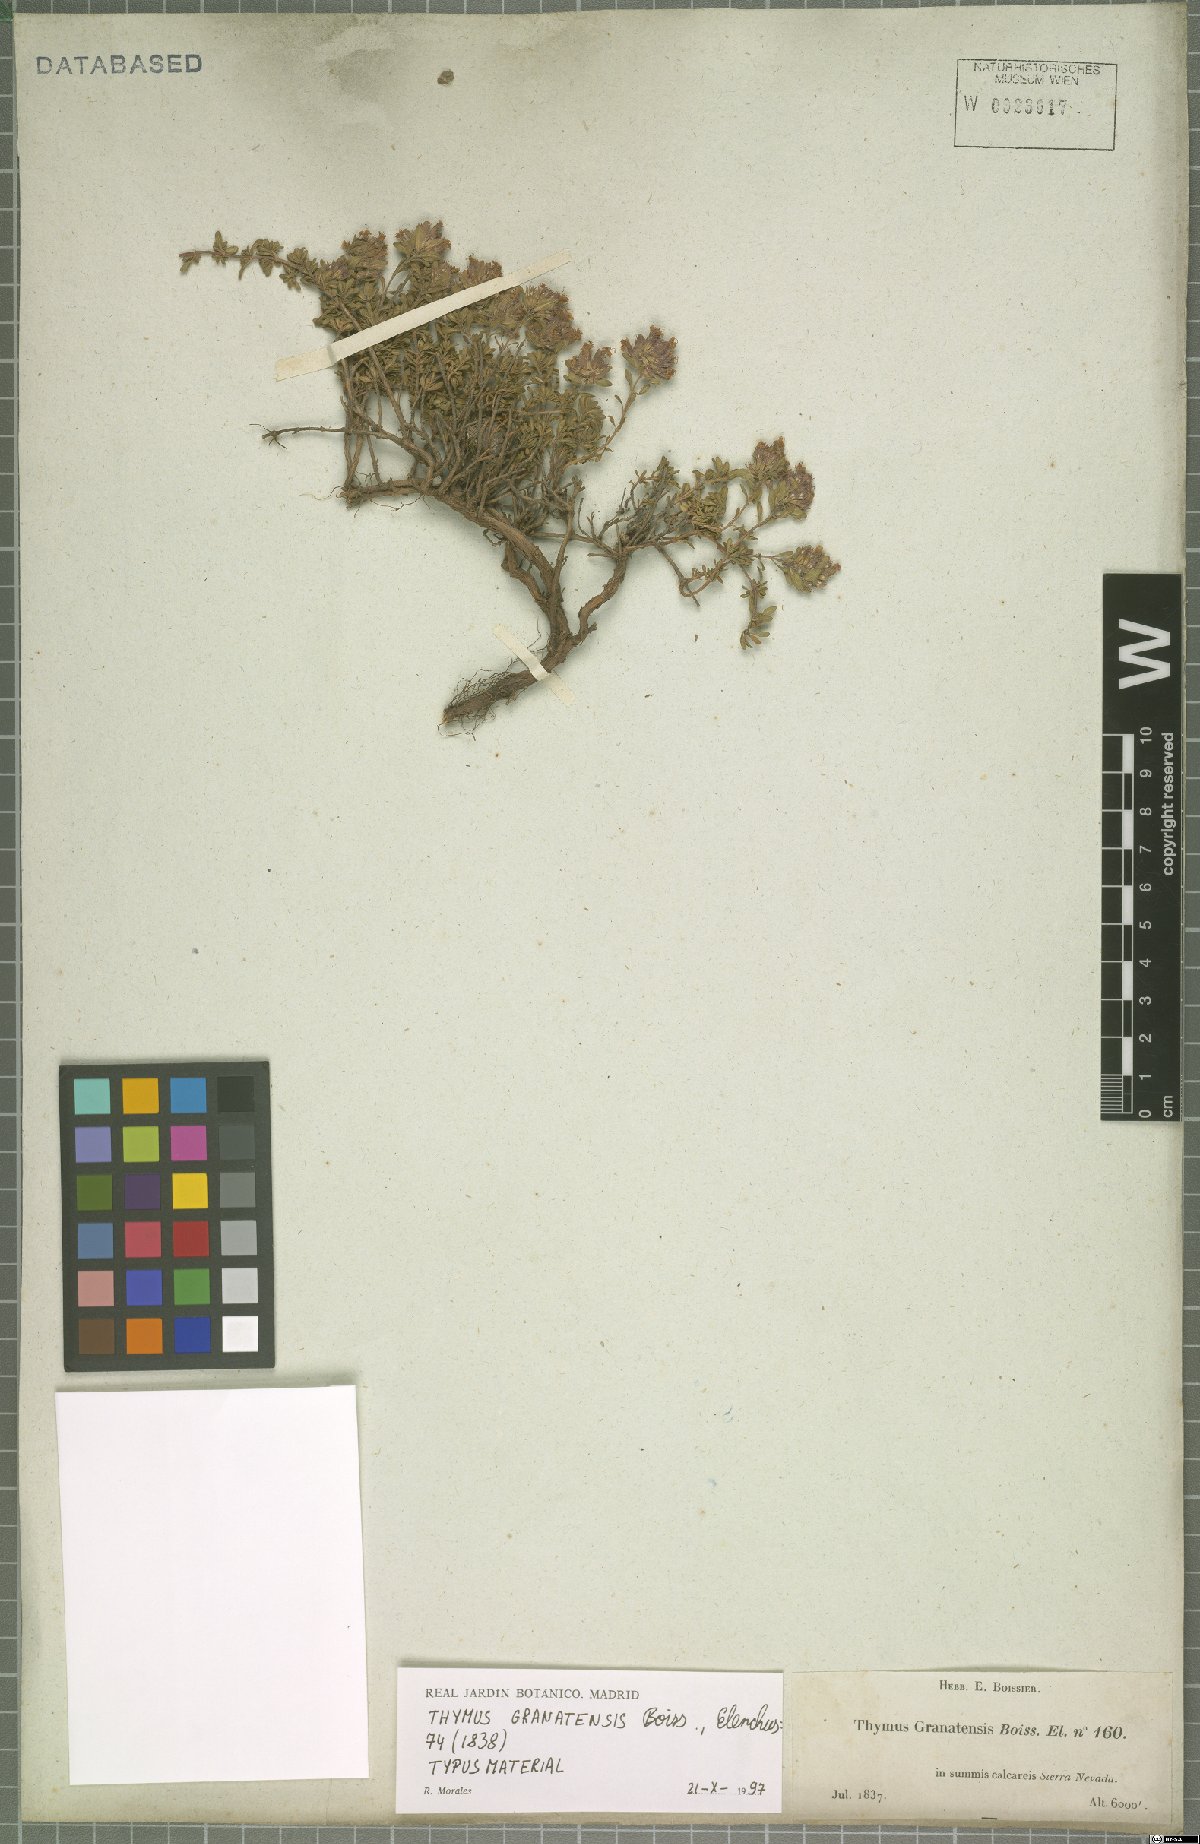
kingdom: Plantae
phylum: Tracheophyta
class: Magnoliopsida
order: Lamiales
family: Lamiaceae
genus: Thymus
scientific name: Thymus granatensis
